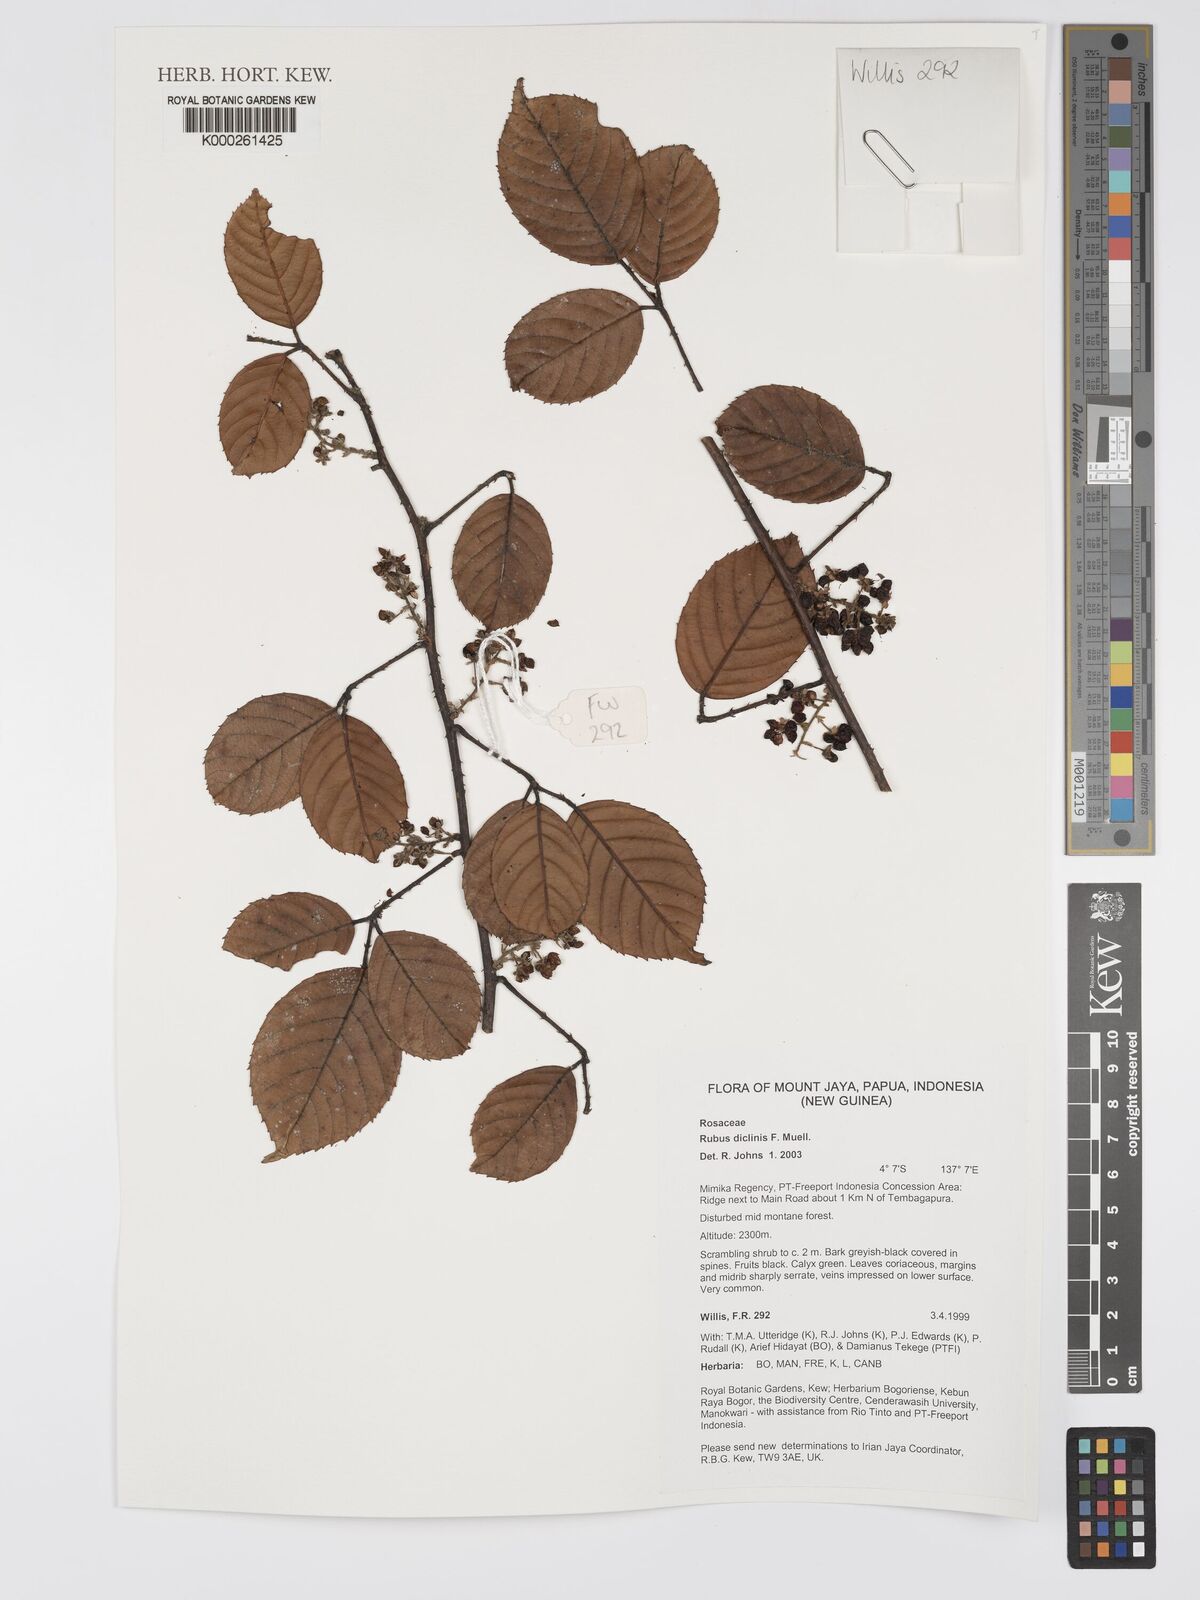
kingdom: Plantae
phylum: Tracheophyta
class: Magnoliopsida
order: Rosales
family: Rosaceae
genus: Rubus
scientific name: Rubus diclinis
